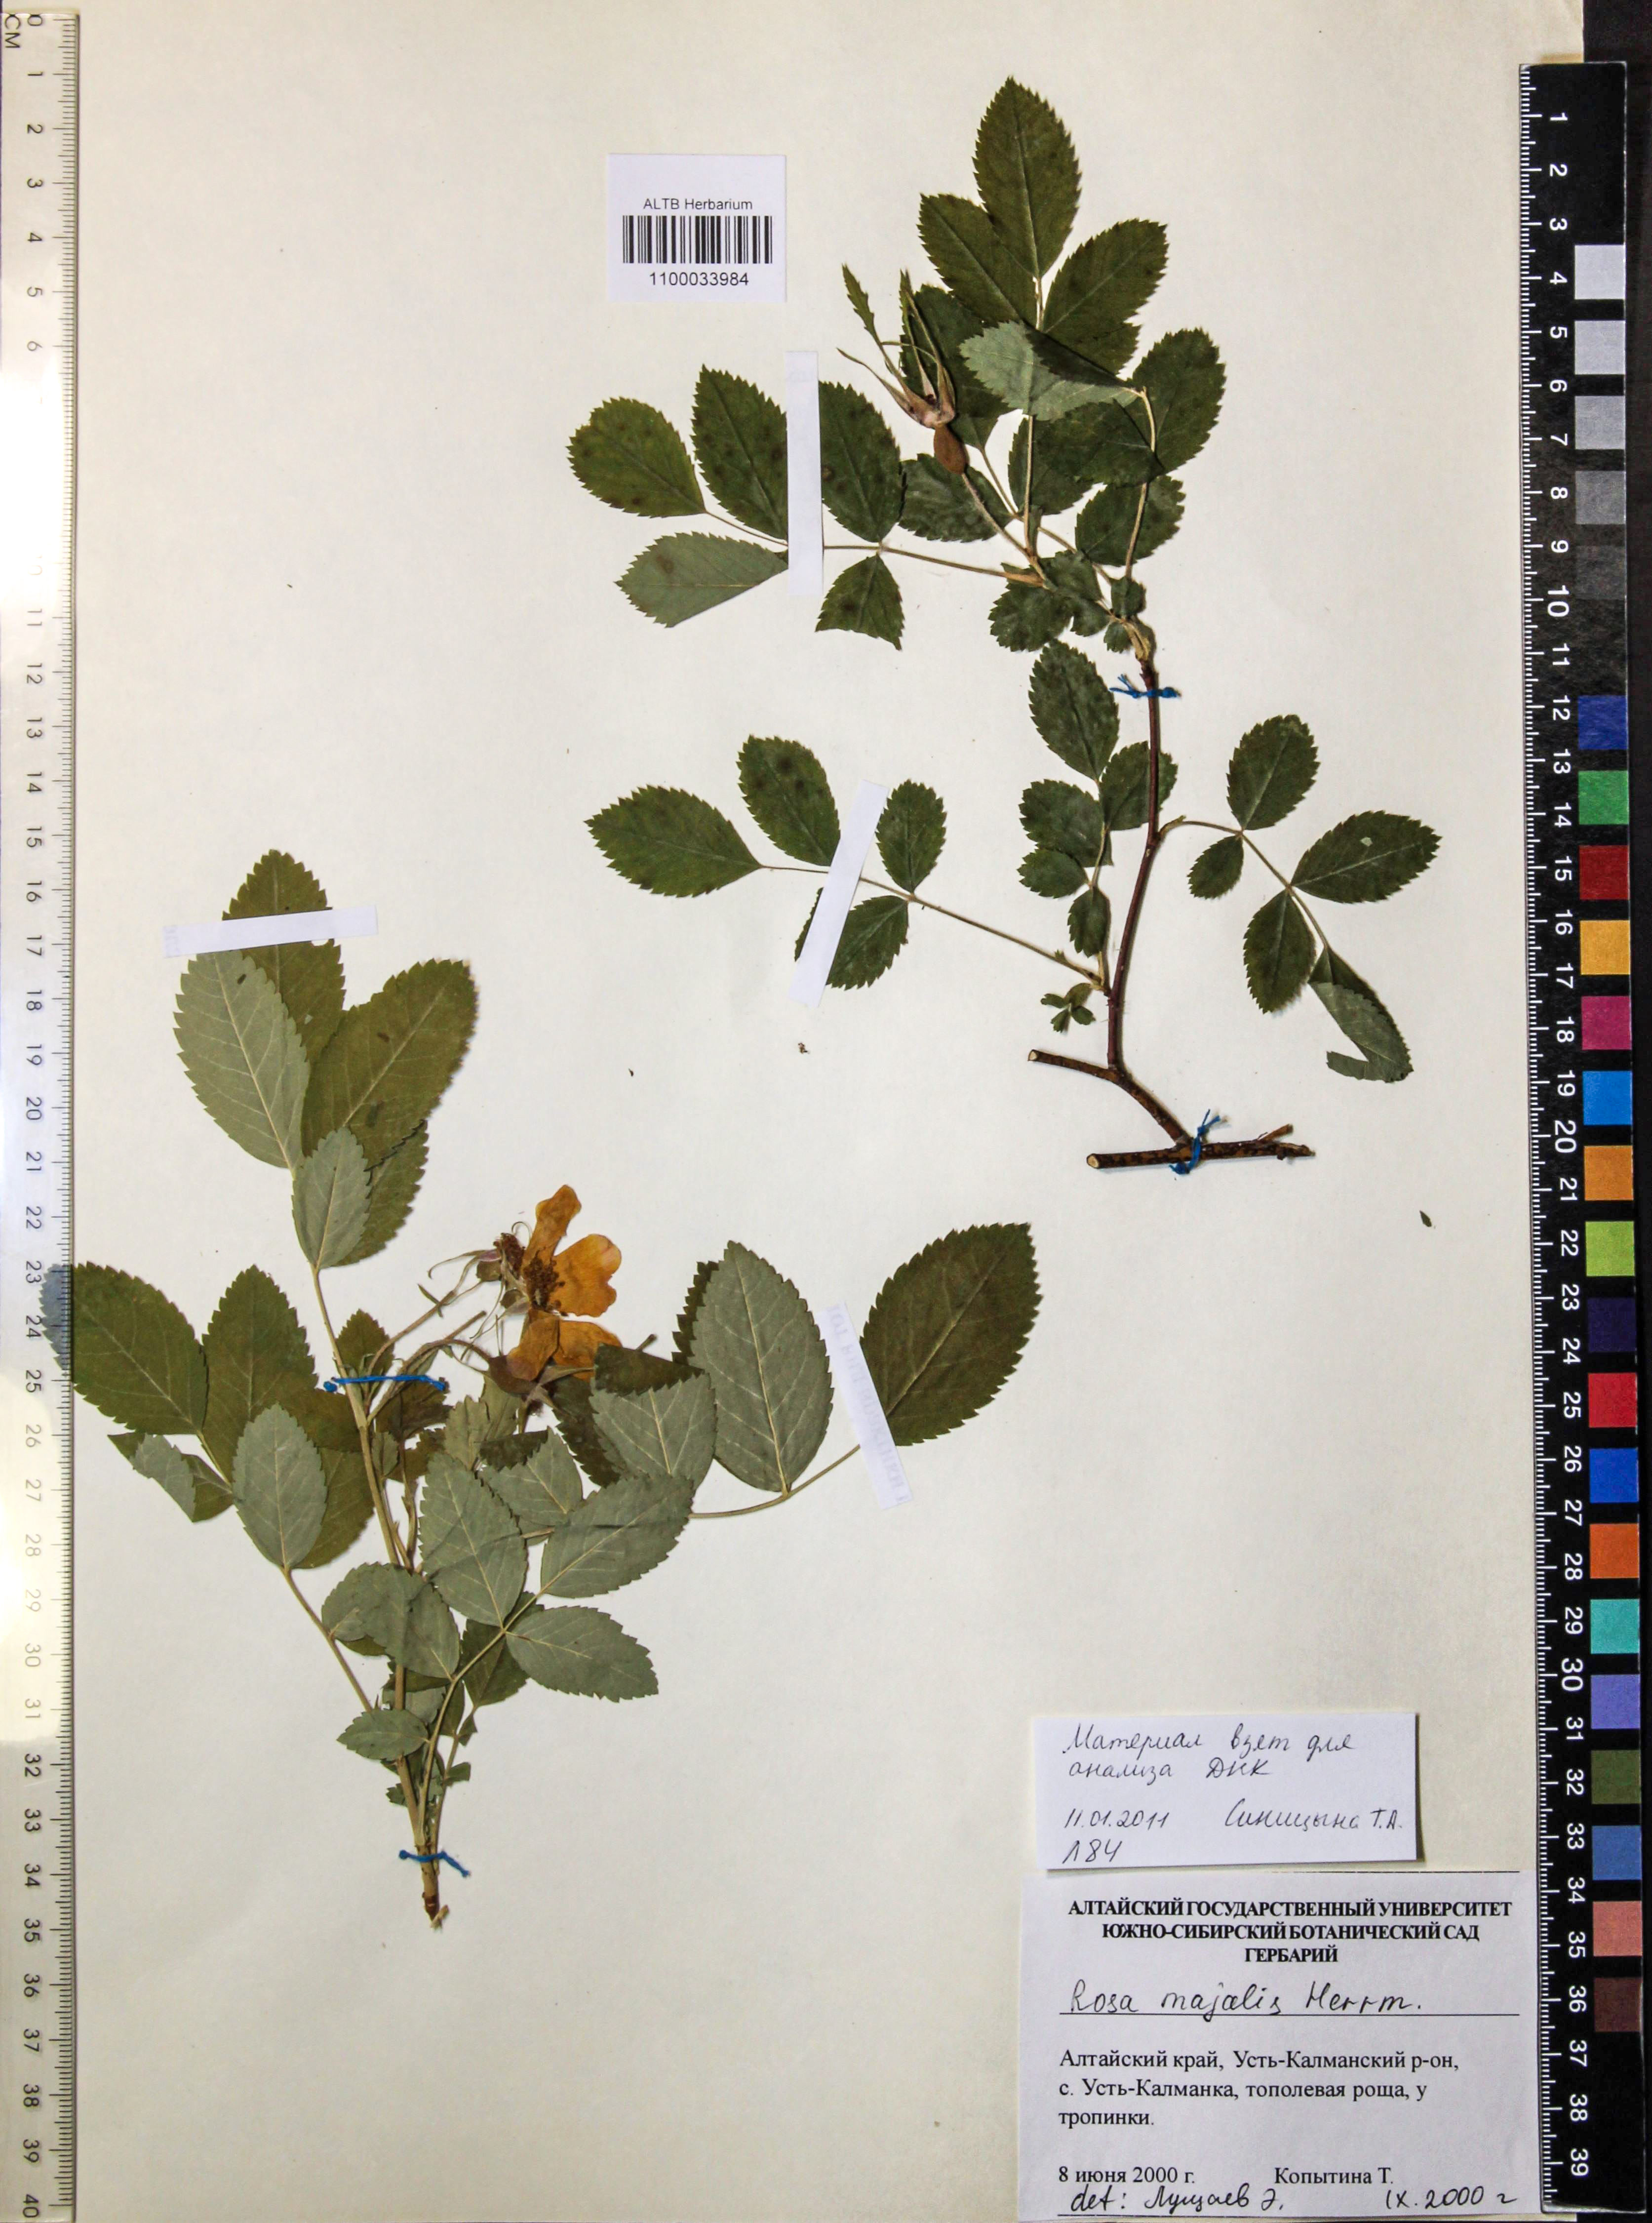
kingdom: Plantae
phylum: Tracheophyta
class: Magnoliopsida
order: Rosales
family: Rosaceae
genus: Rosa
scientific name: Rosa majalis
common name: Cinnamon rose
